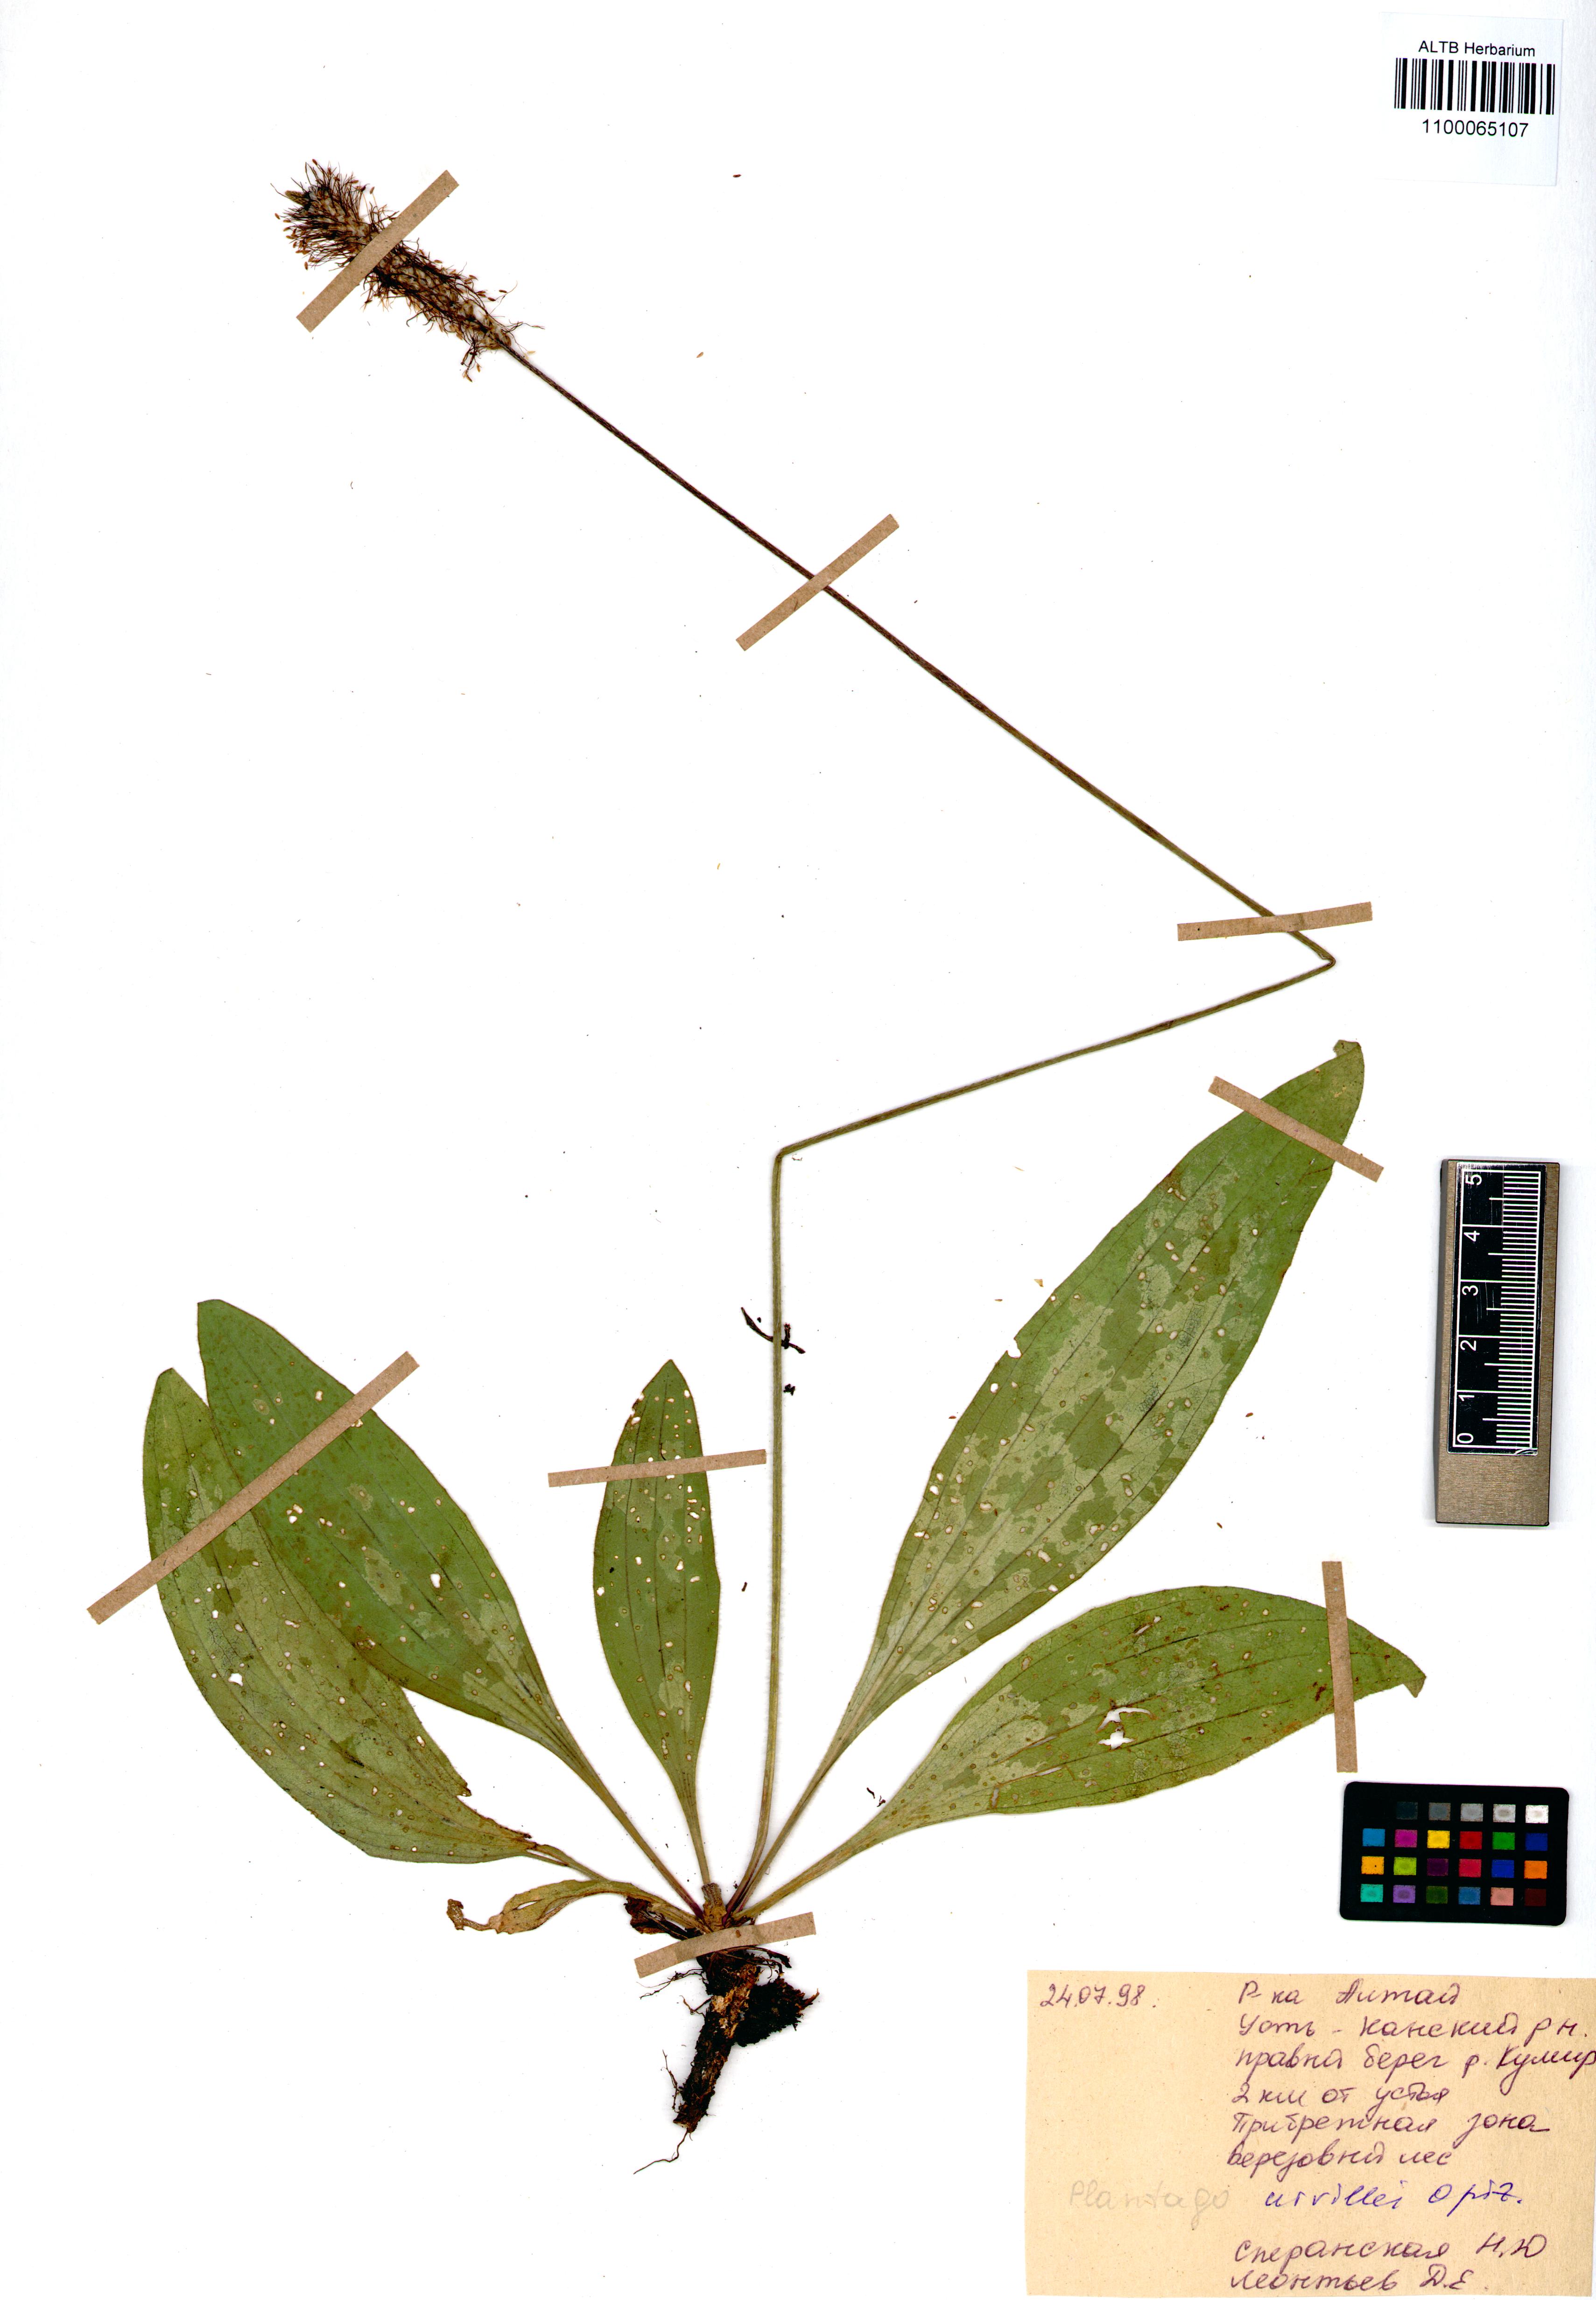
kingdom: Plantae
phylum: Tracheophyta
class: Magnoliopsida
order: Lamiales
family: Plantaginaceae
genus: Plantago
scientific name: Plantago urvillei
